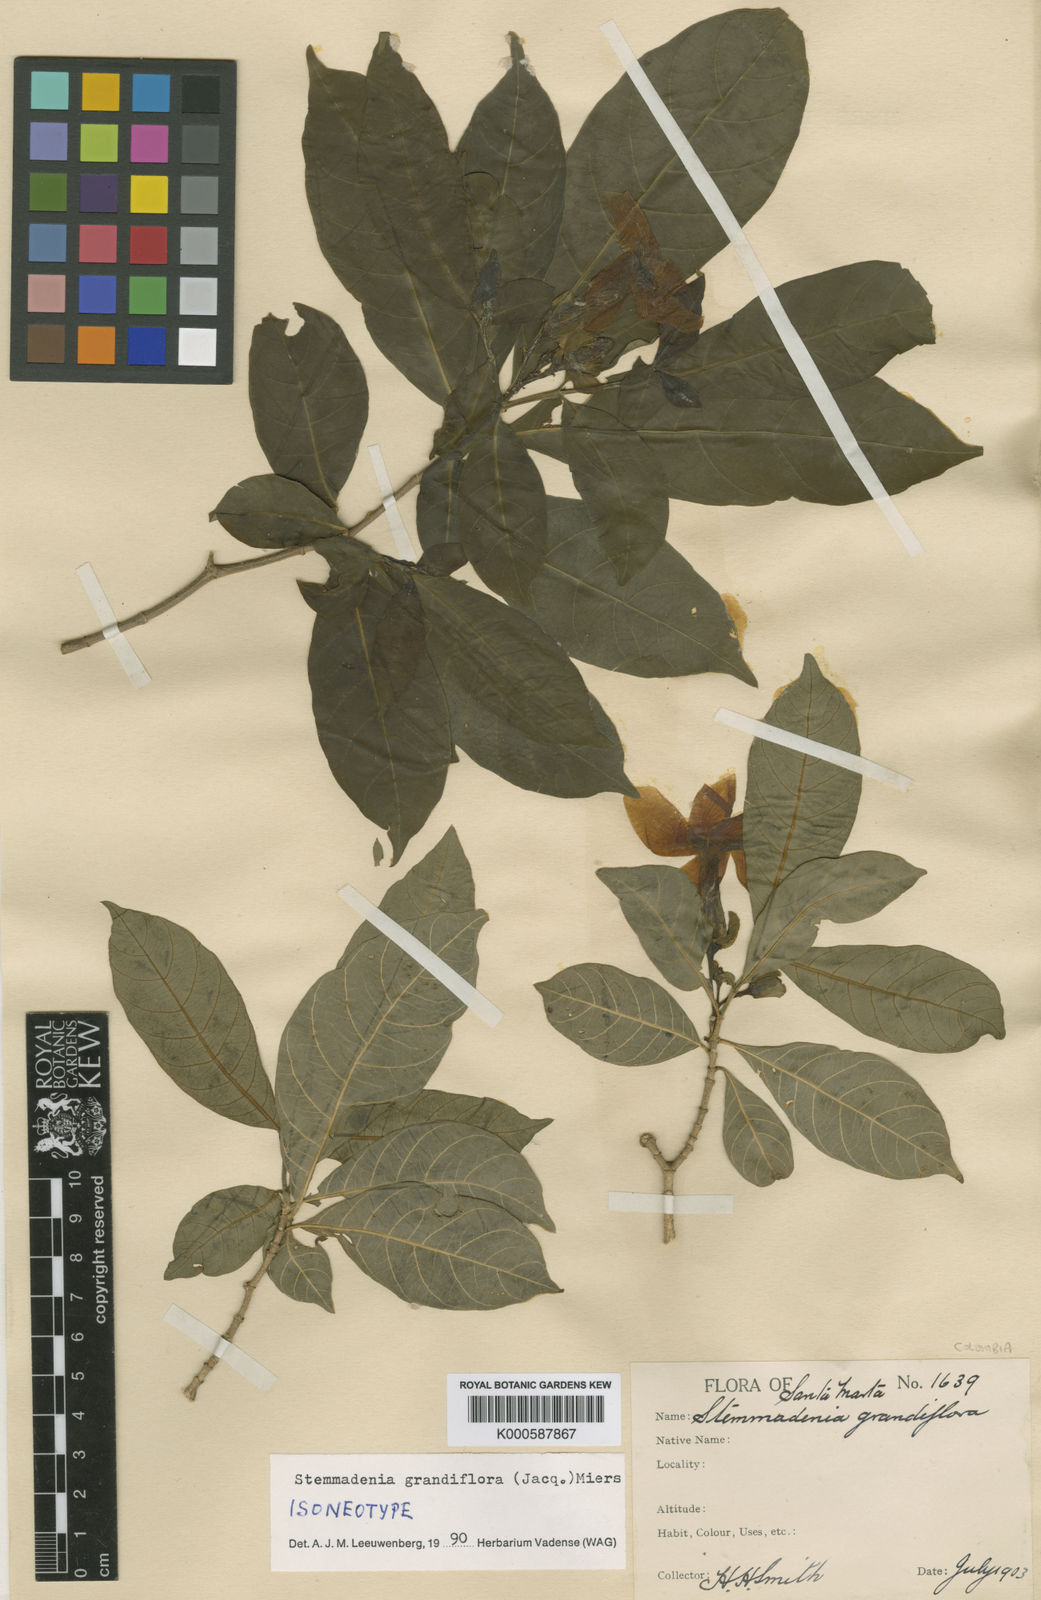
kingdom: Plantae
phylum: Tracheophyta
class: Magnoliopsida
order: Gentianales
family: Apocynaceae
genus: Tabernaemontana
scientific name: Tabernaemontana grandiflora
